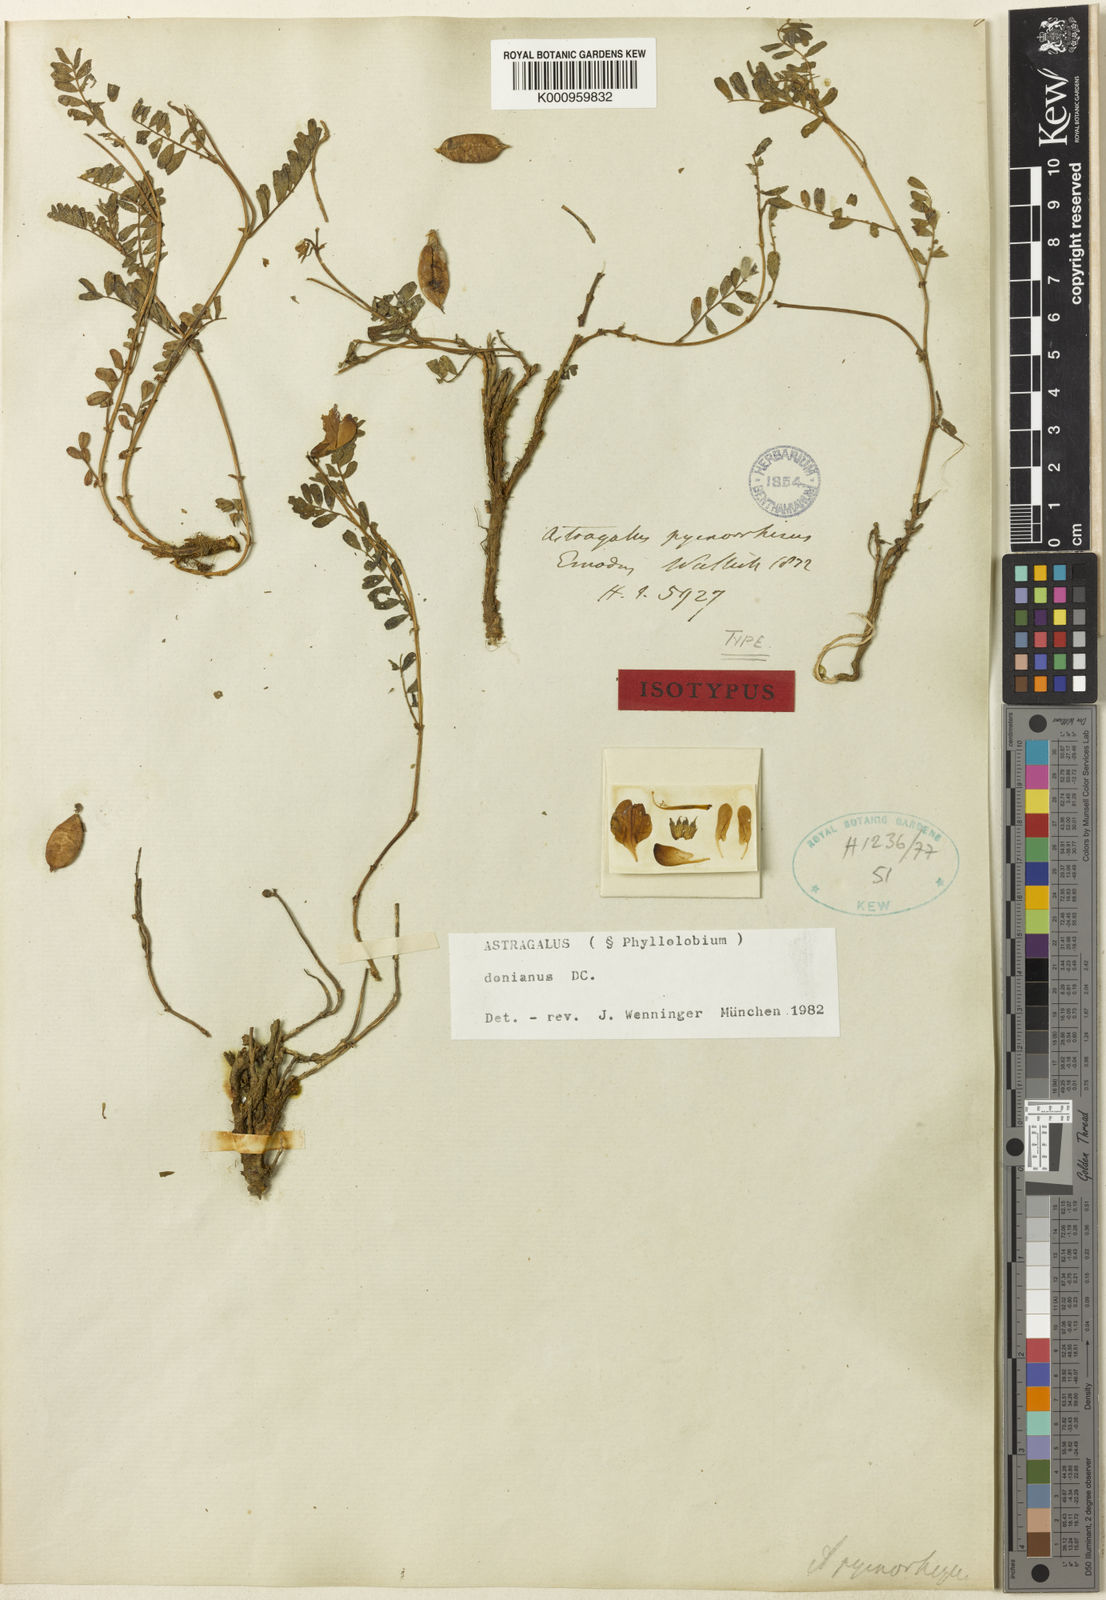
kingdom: Plantae
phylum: Tracheophyta
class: Magnoliopsida
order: Fabales
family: Fabaceae
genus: Astragalus
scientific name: Astragalus
